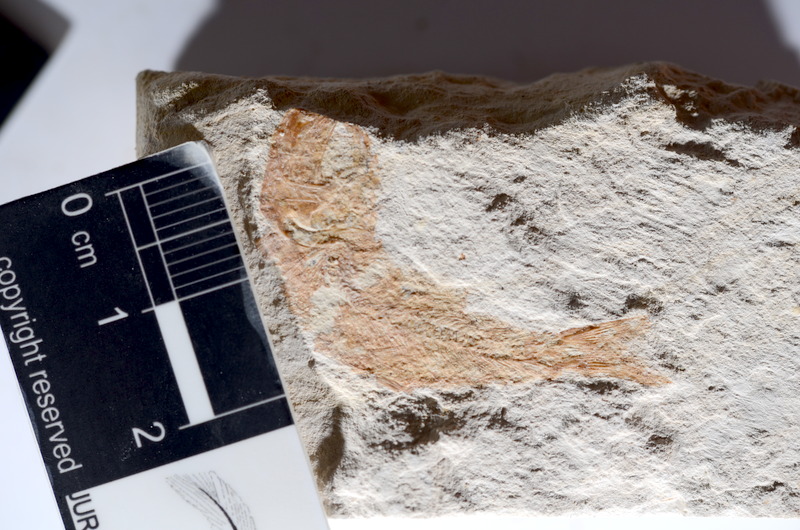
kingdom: Animalia
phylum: Chordata
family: Ascalaboidae
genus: Tharsis
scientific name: Tharsis dubius
